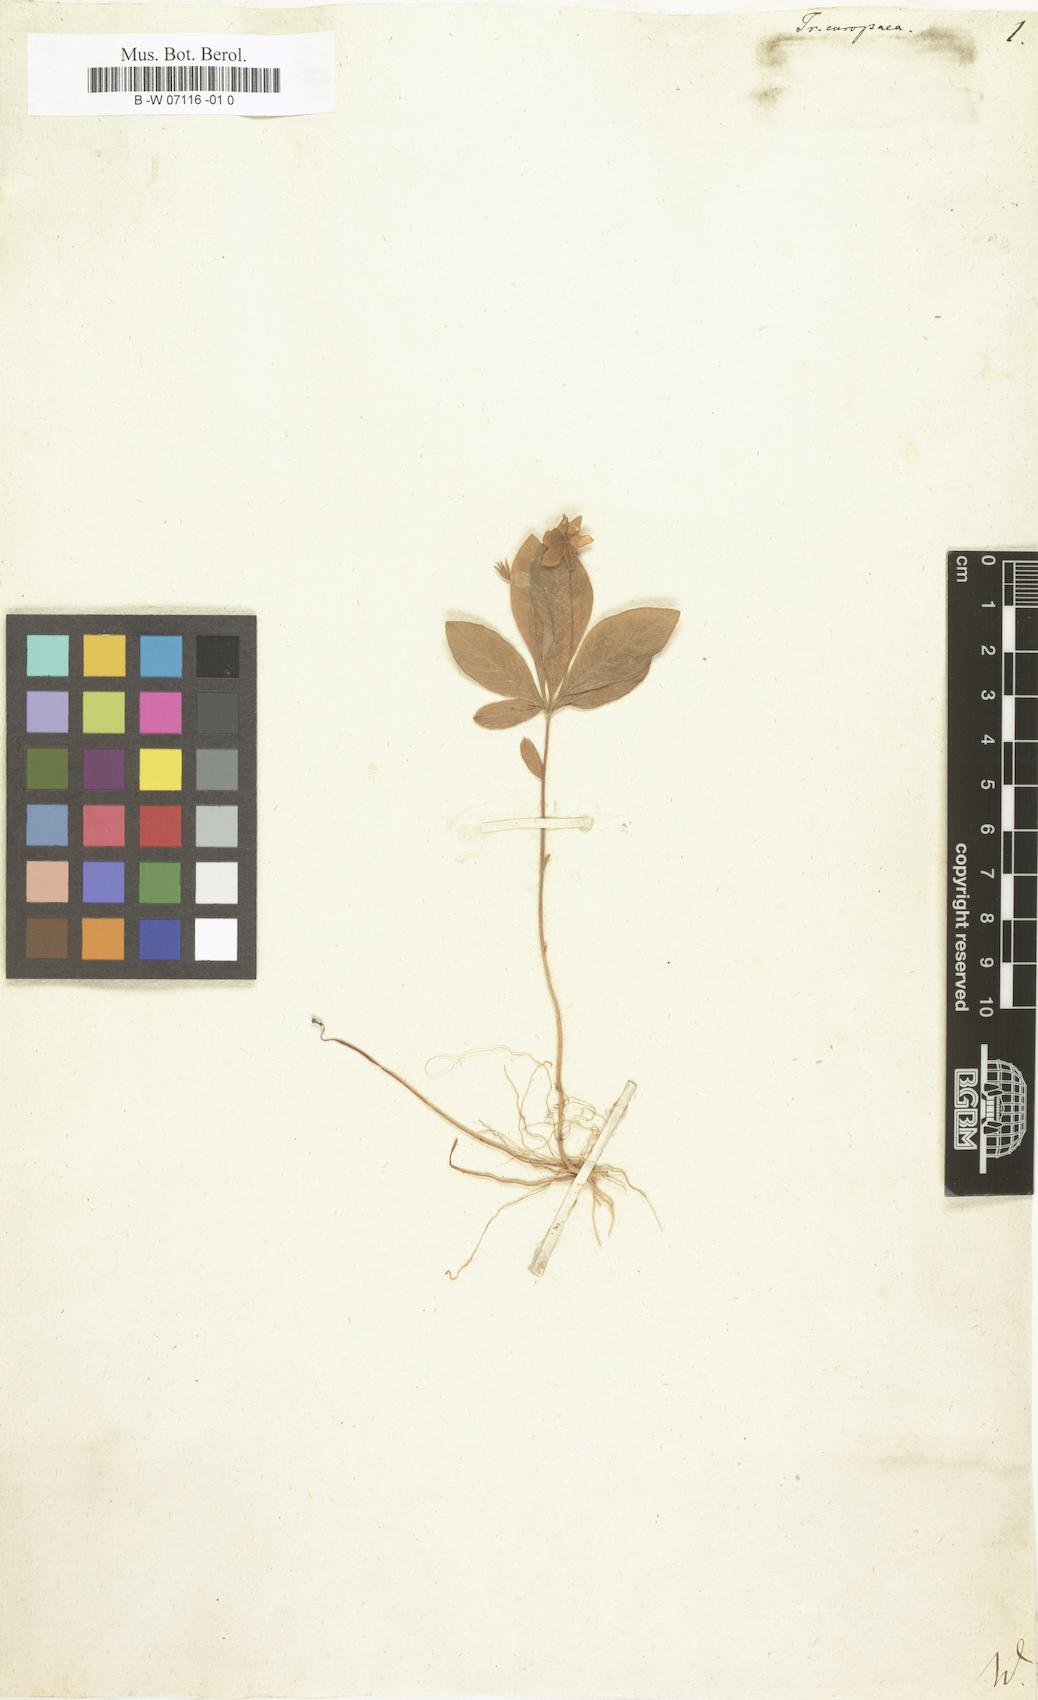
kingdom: Plantae
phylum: Tracheophyta
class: Magnoliopsida
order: Ericales
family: Primulaceae
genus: Lysimachia
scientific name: Lysimachia
